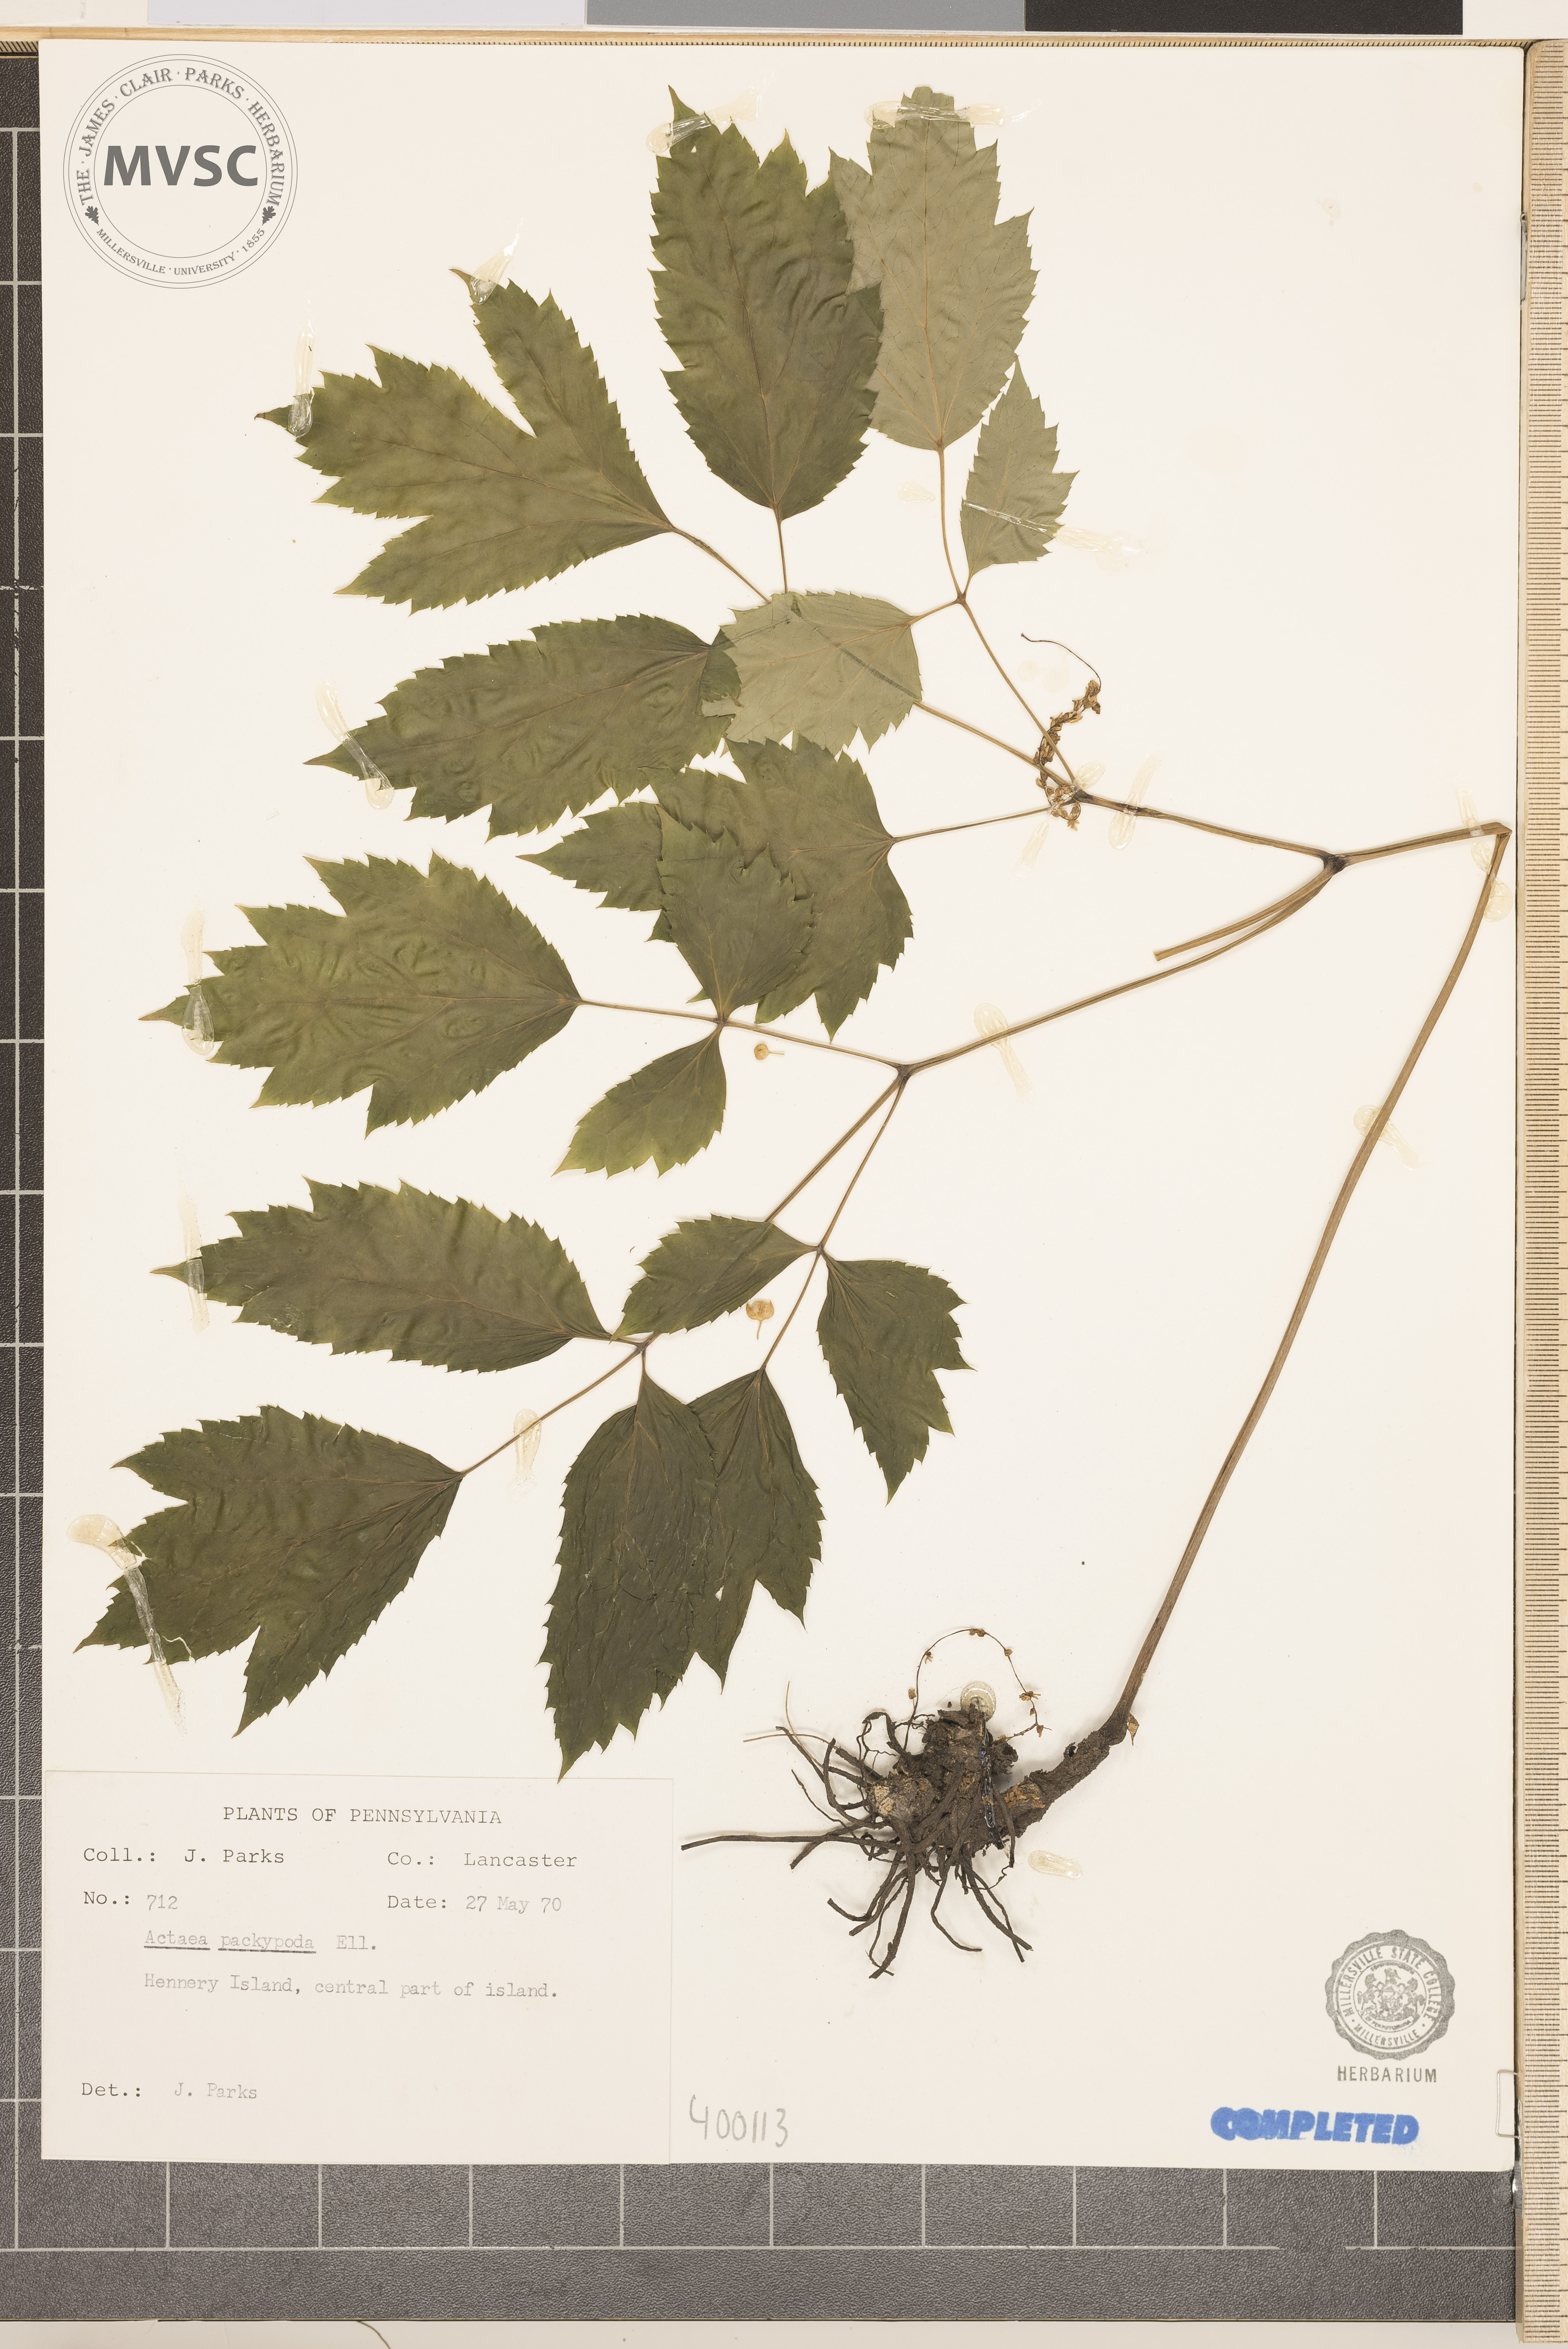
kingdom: Plantae
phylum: Tracheophyta
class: Magnoliopsida
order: Ranunculales
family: Ranunculaceae
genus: Actaea
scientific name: Actaea pachypoda
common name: Doll's-eyes
